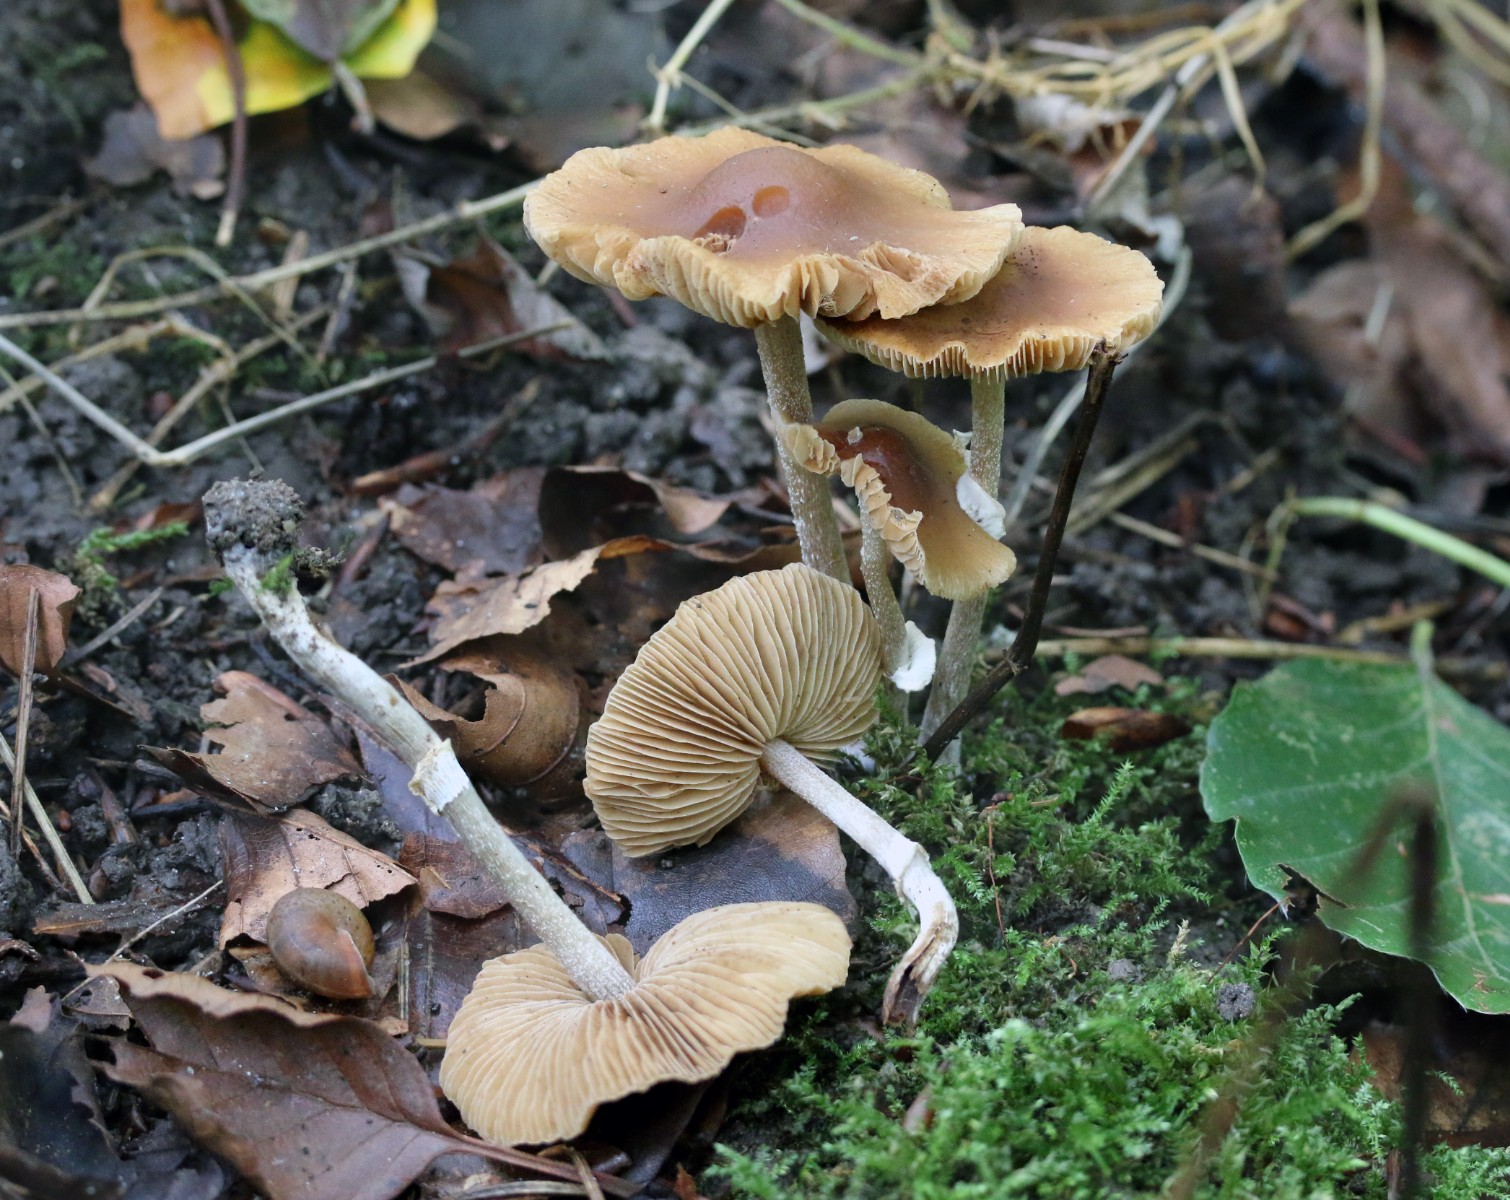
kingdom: Fungi
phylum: Basidiomycota
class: Agaricomycetes
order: Agaricales
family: Bolbitiaceae
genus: Conocybe
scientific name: Conocybe arrhenii
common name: ring-dansehat
